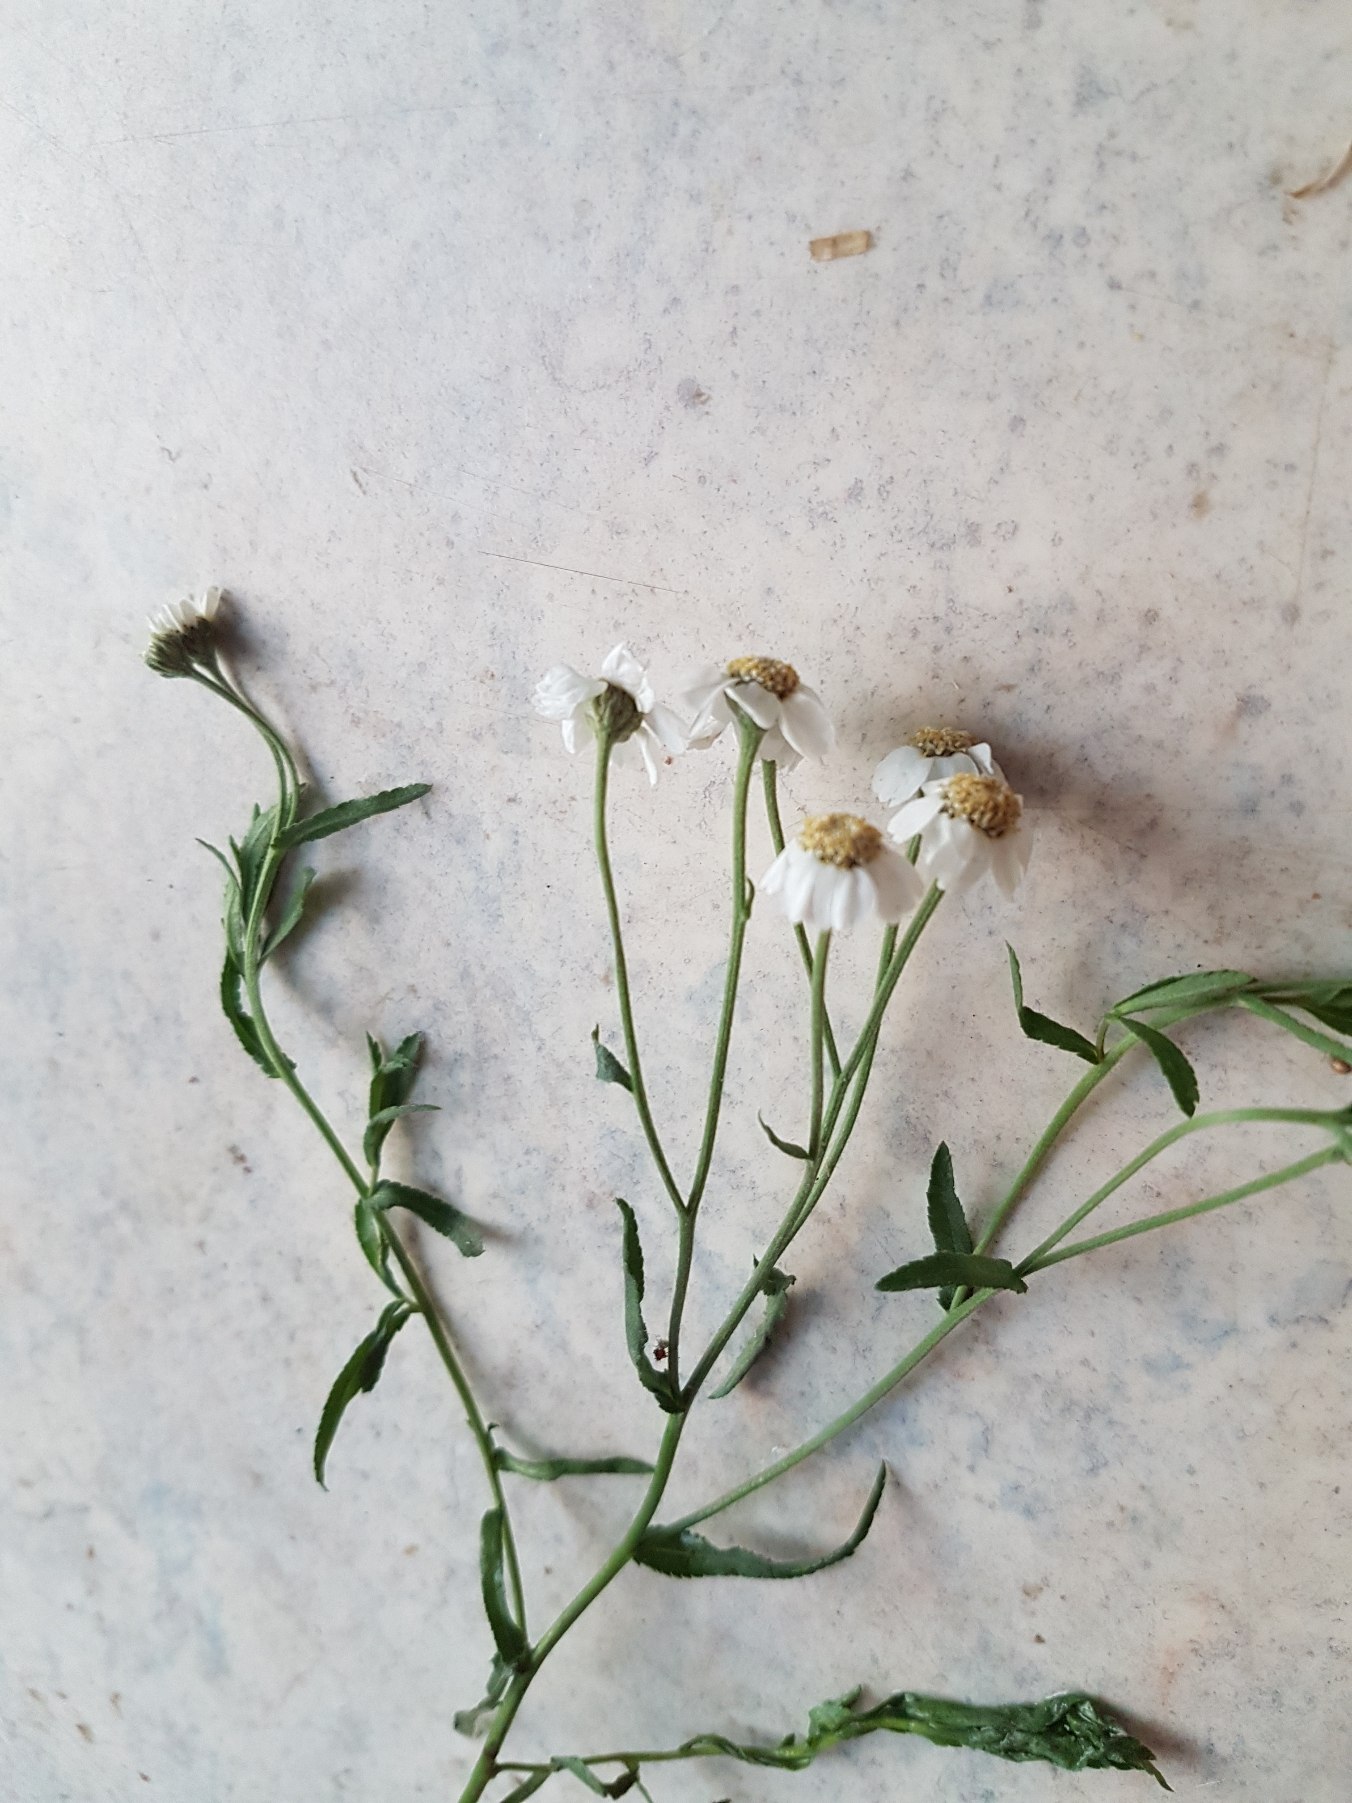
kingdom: Plantae
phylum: Tracheophyta
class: Magnoliopsida
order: Asterales
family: Asteraceae
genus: Achillea
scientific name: Achillea ptarmica
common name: Nyse-røllike
